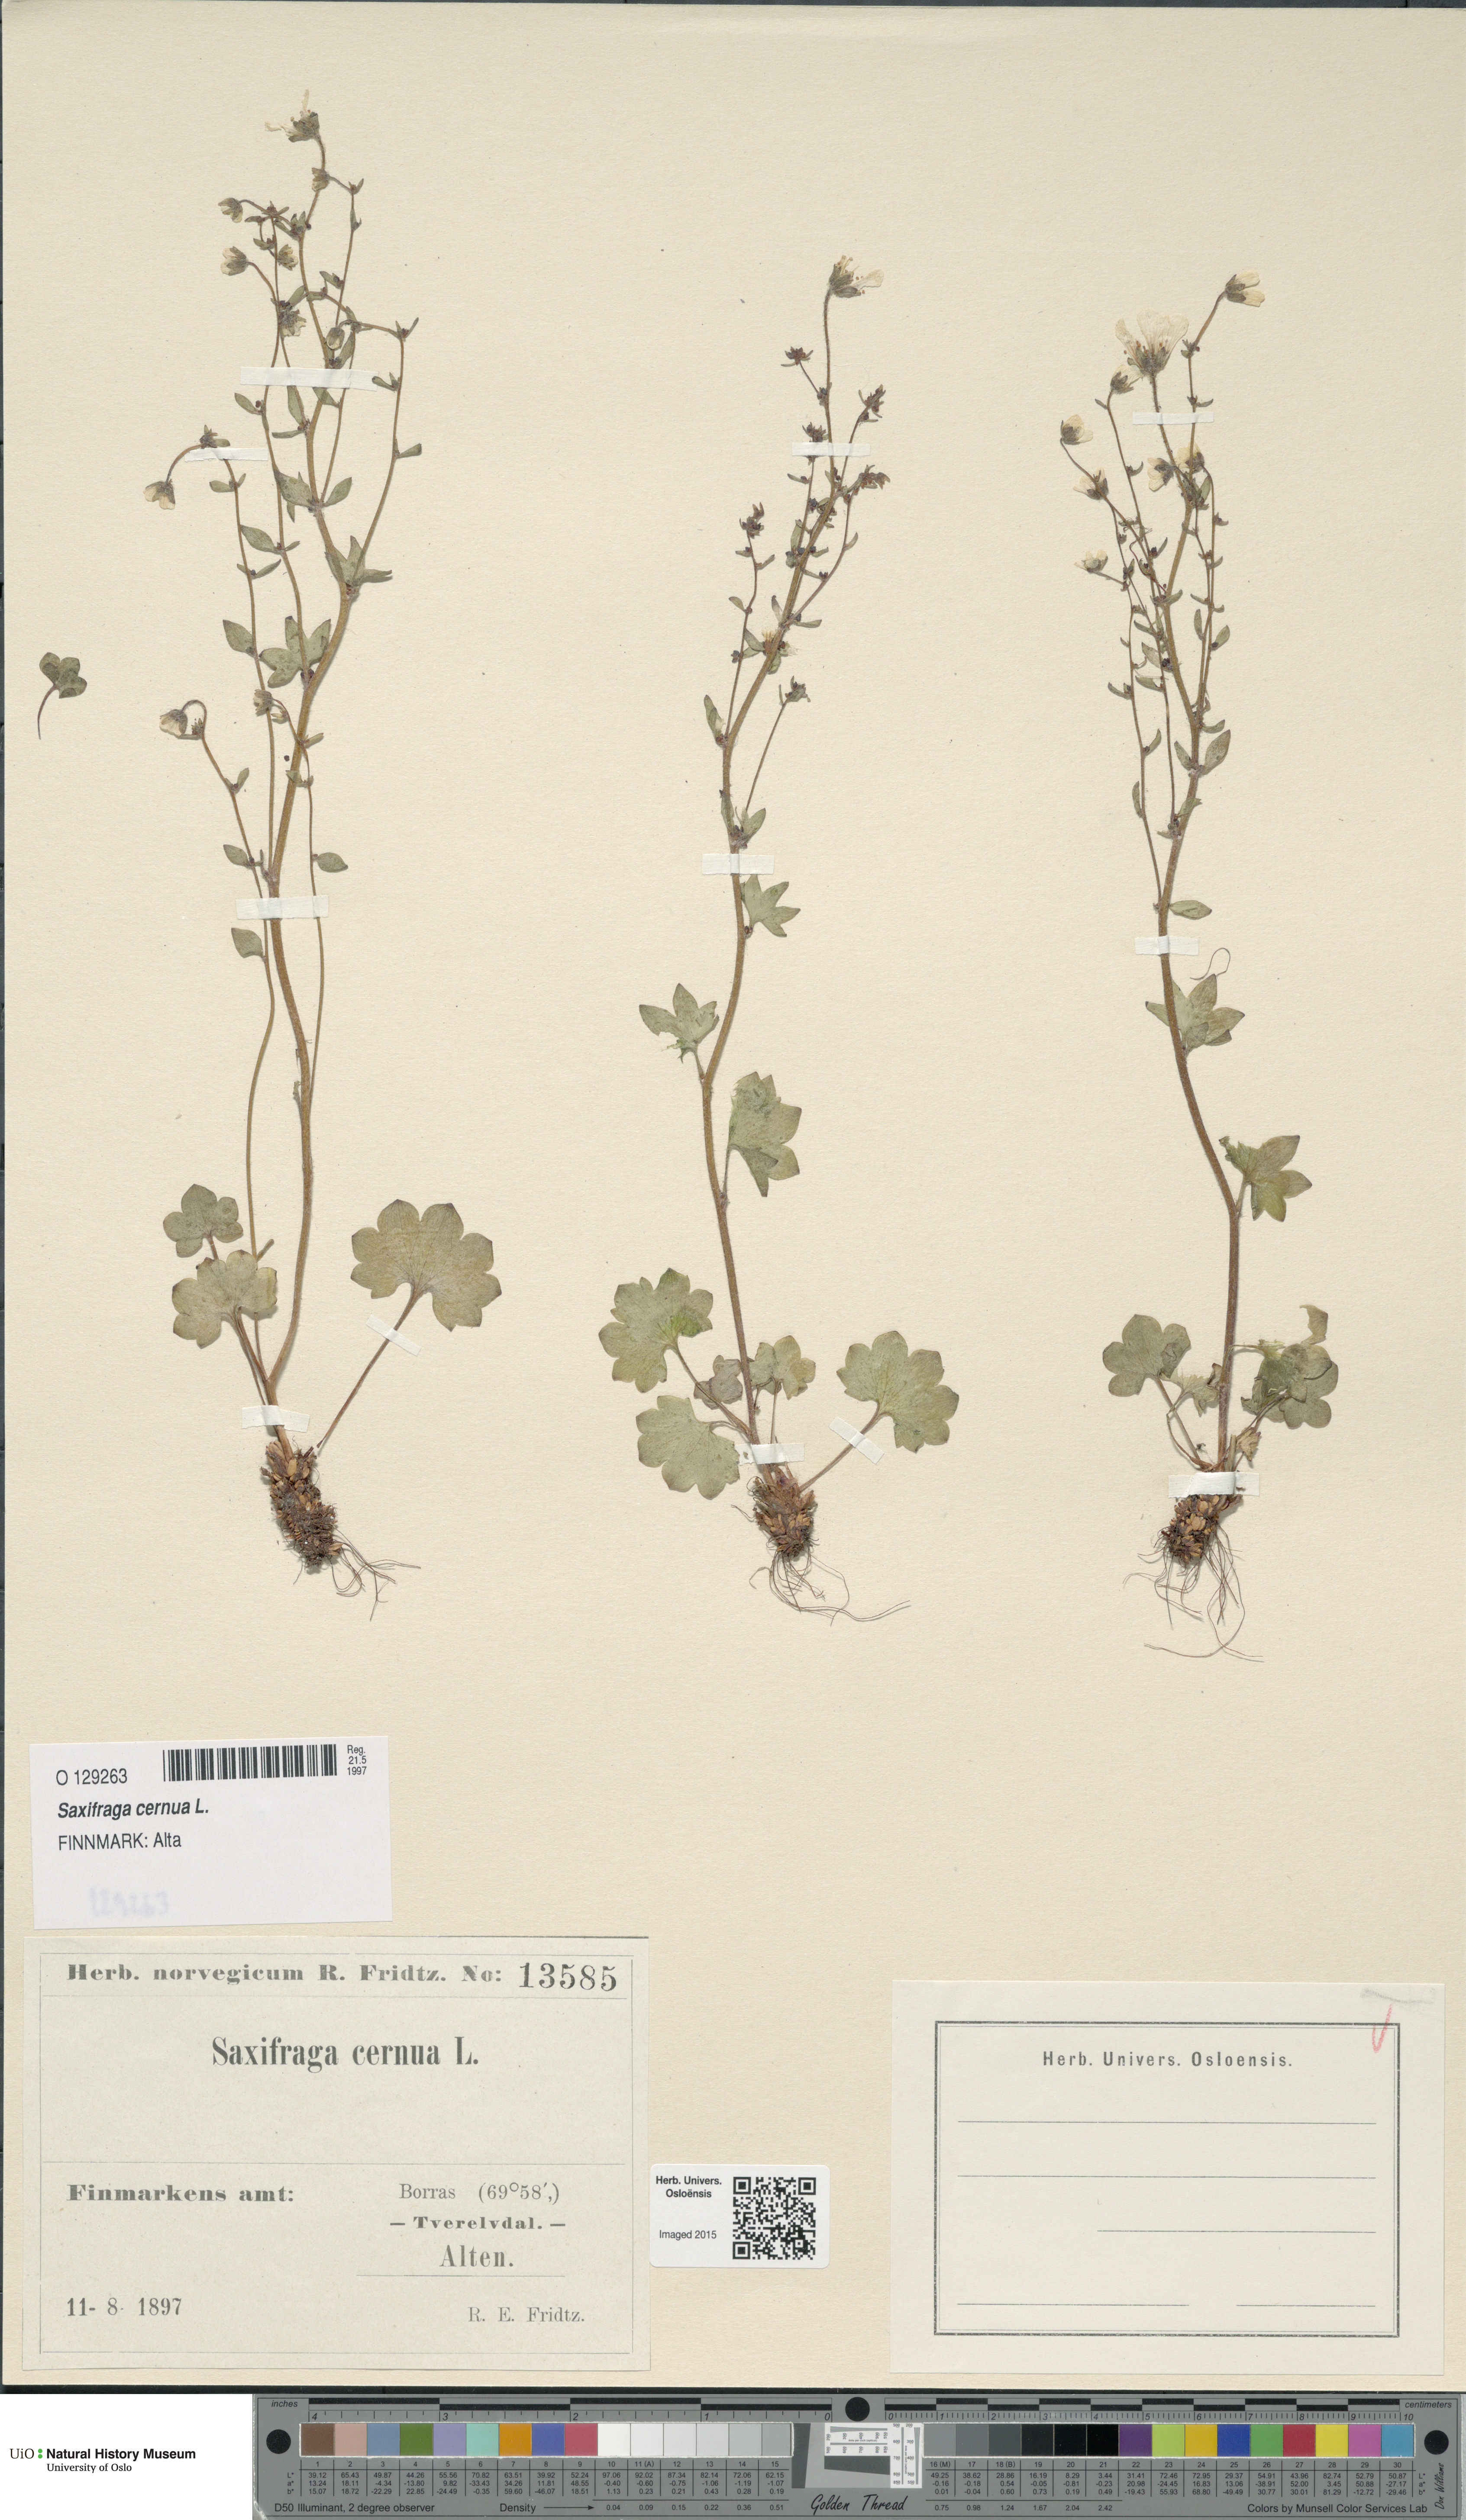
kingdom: Plantae
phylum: Tracheophyta
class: Magnoliopsida
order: Saxifragales
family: Saxifragaceae
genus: Saxifraga
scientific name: Saxifraga cernua
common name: Drooping saxifrage
